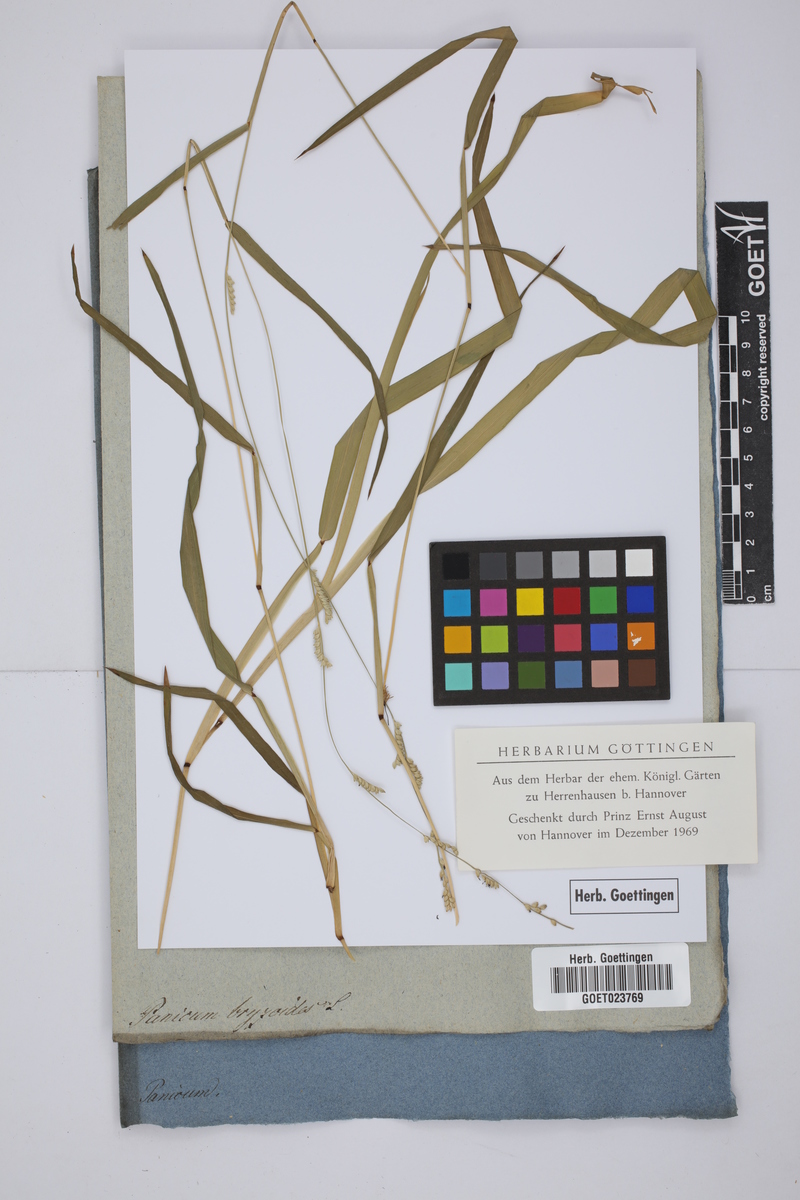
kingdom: Plantae
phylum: Tracheophyta
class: Liliopsida
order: Poales
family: Poaceae
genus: Echinochloa
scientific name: Echinochloa colonum
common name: Jungle rice
